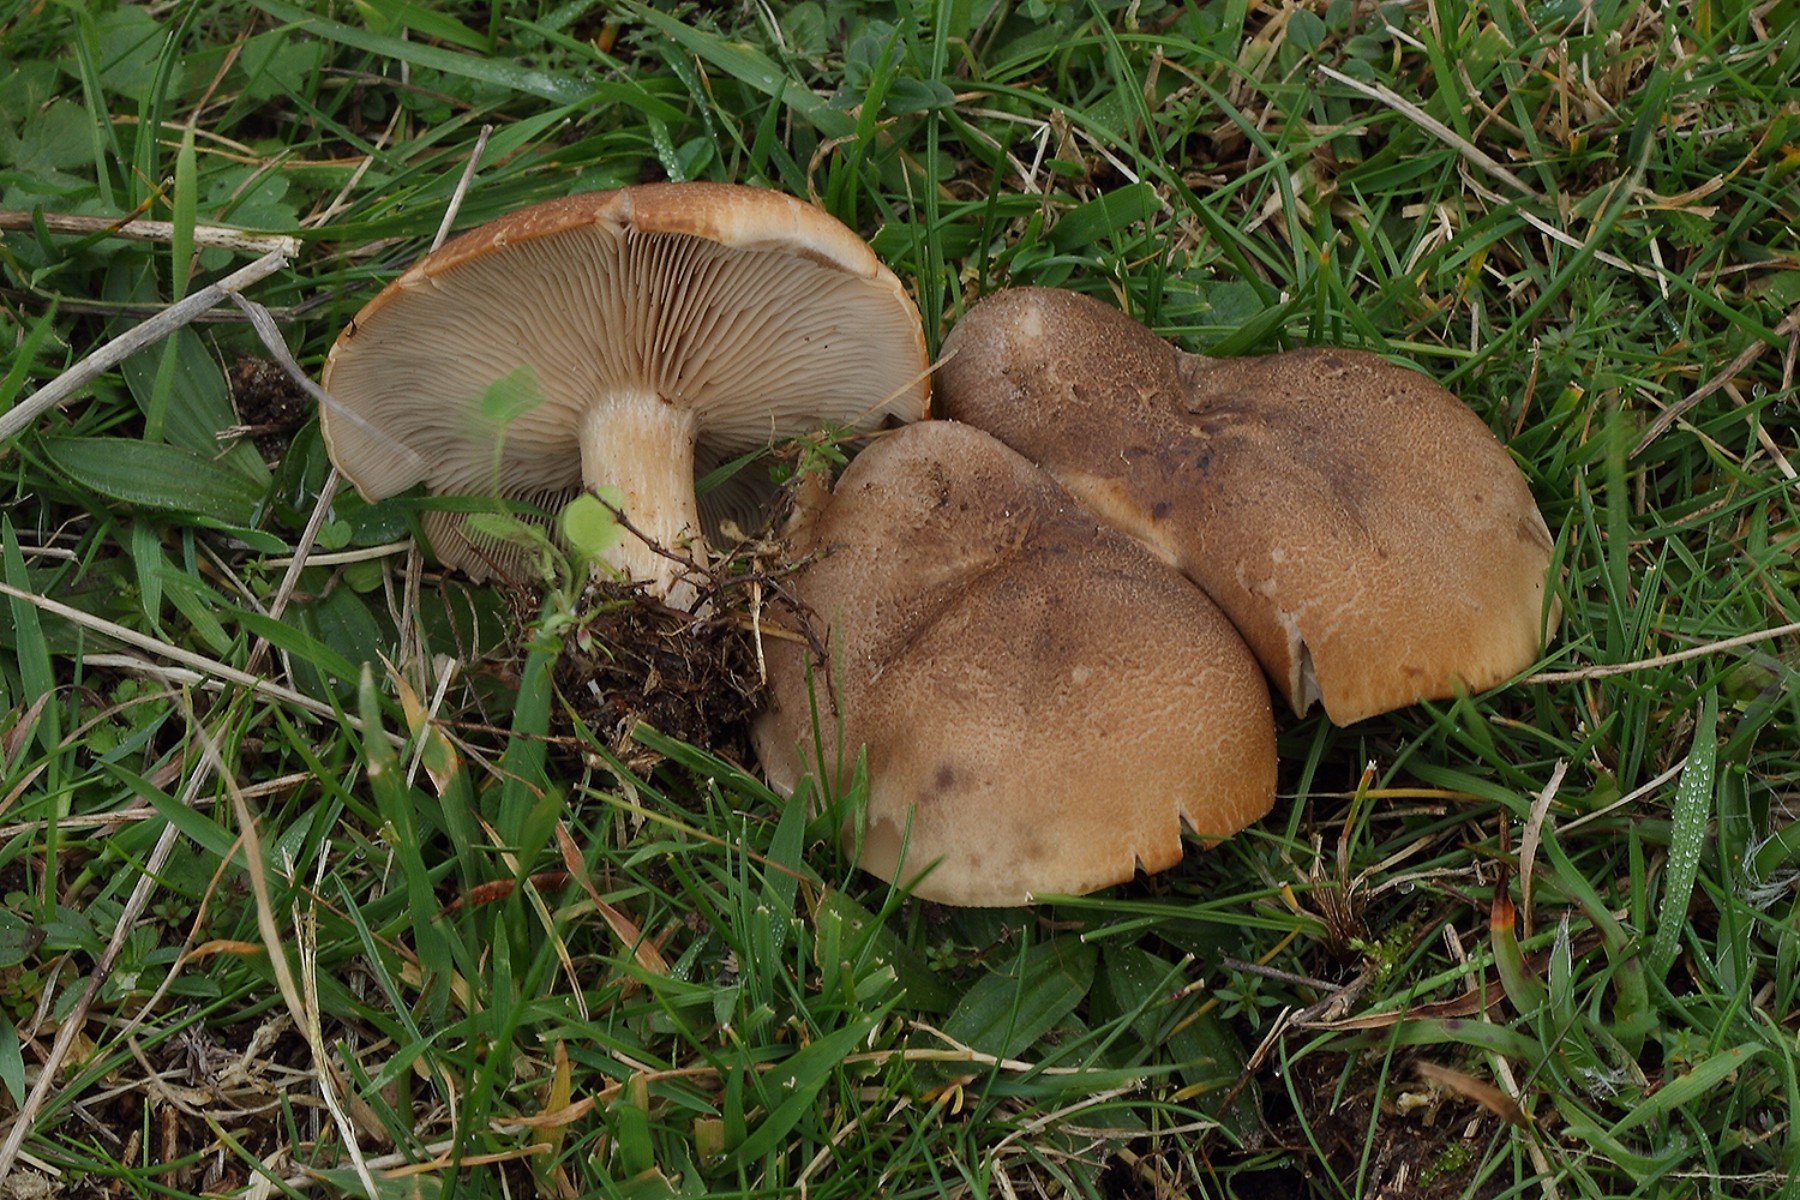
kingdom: Fungi
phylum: Basidiomycota
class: Agaricomycetes
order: Agaricales
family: Tricholomataceae
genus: Lepista
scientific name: Lepista panaeolus
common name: marmoreret hekseringshat
